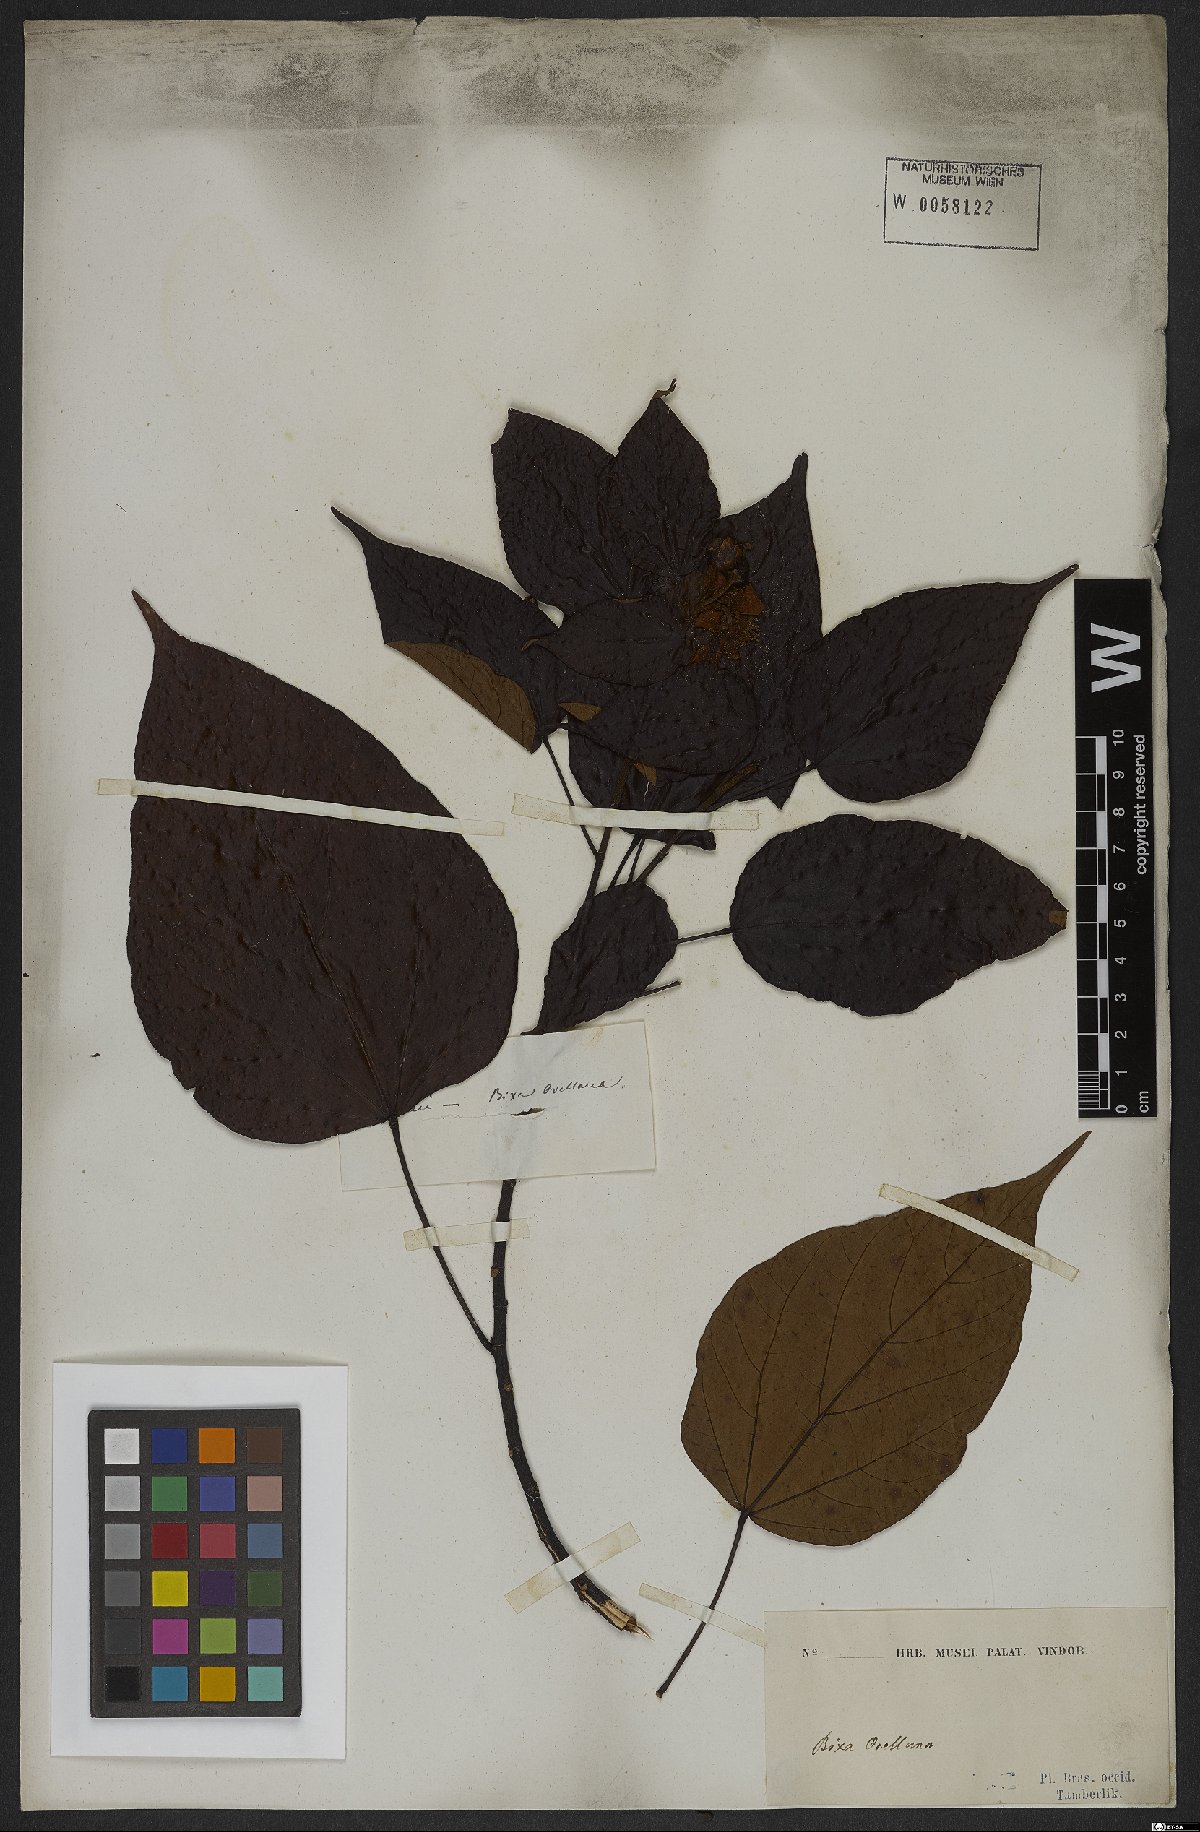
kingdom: Plantae
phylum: Tracheophyta
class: Magnoliopsida
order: Malvales
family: Bixaceae
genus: Bixa
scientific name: Bixa orellana
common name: Lipsticktree
